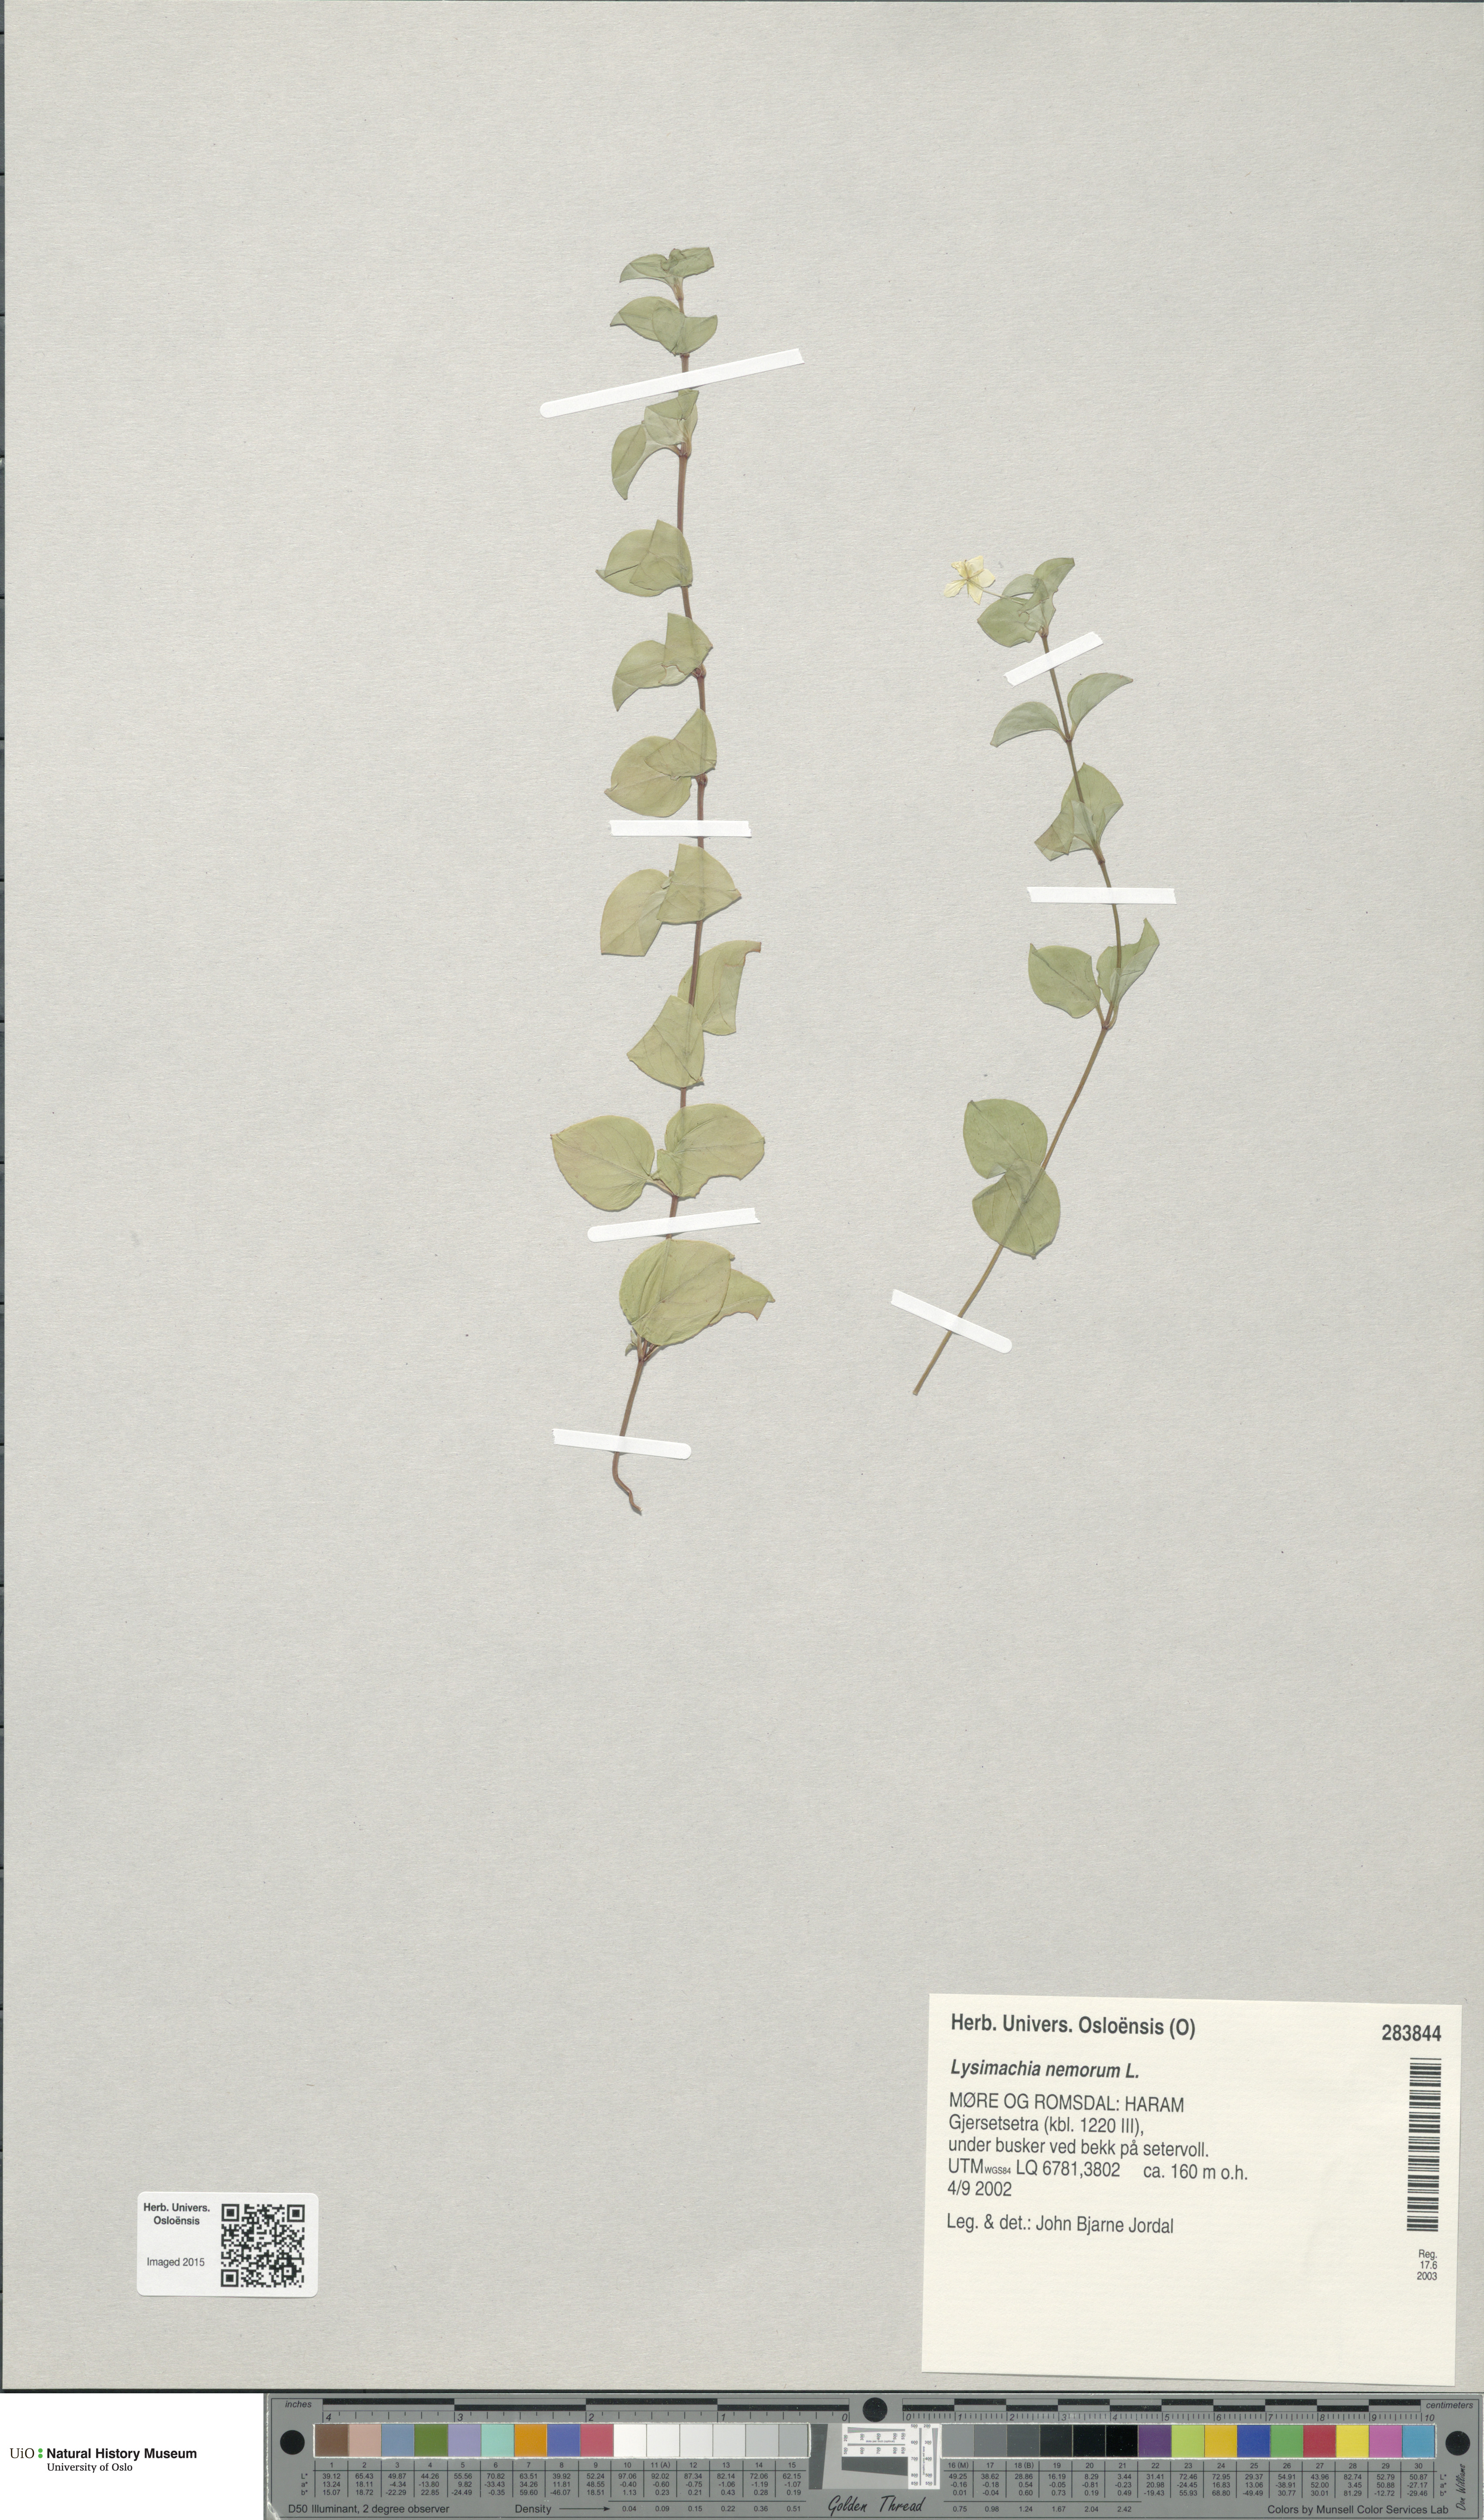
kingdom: Plantae
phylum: Tracheophyta
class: Magnoliopsida
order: Ericales
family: Primulaceae
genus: Lysimachia
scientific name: Lysimachia nemorum
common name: Yellow pimpernel
